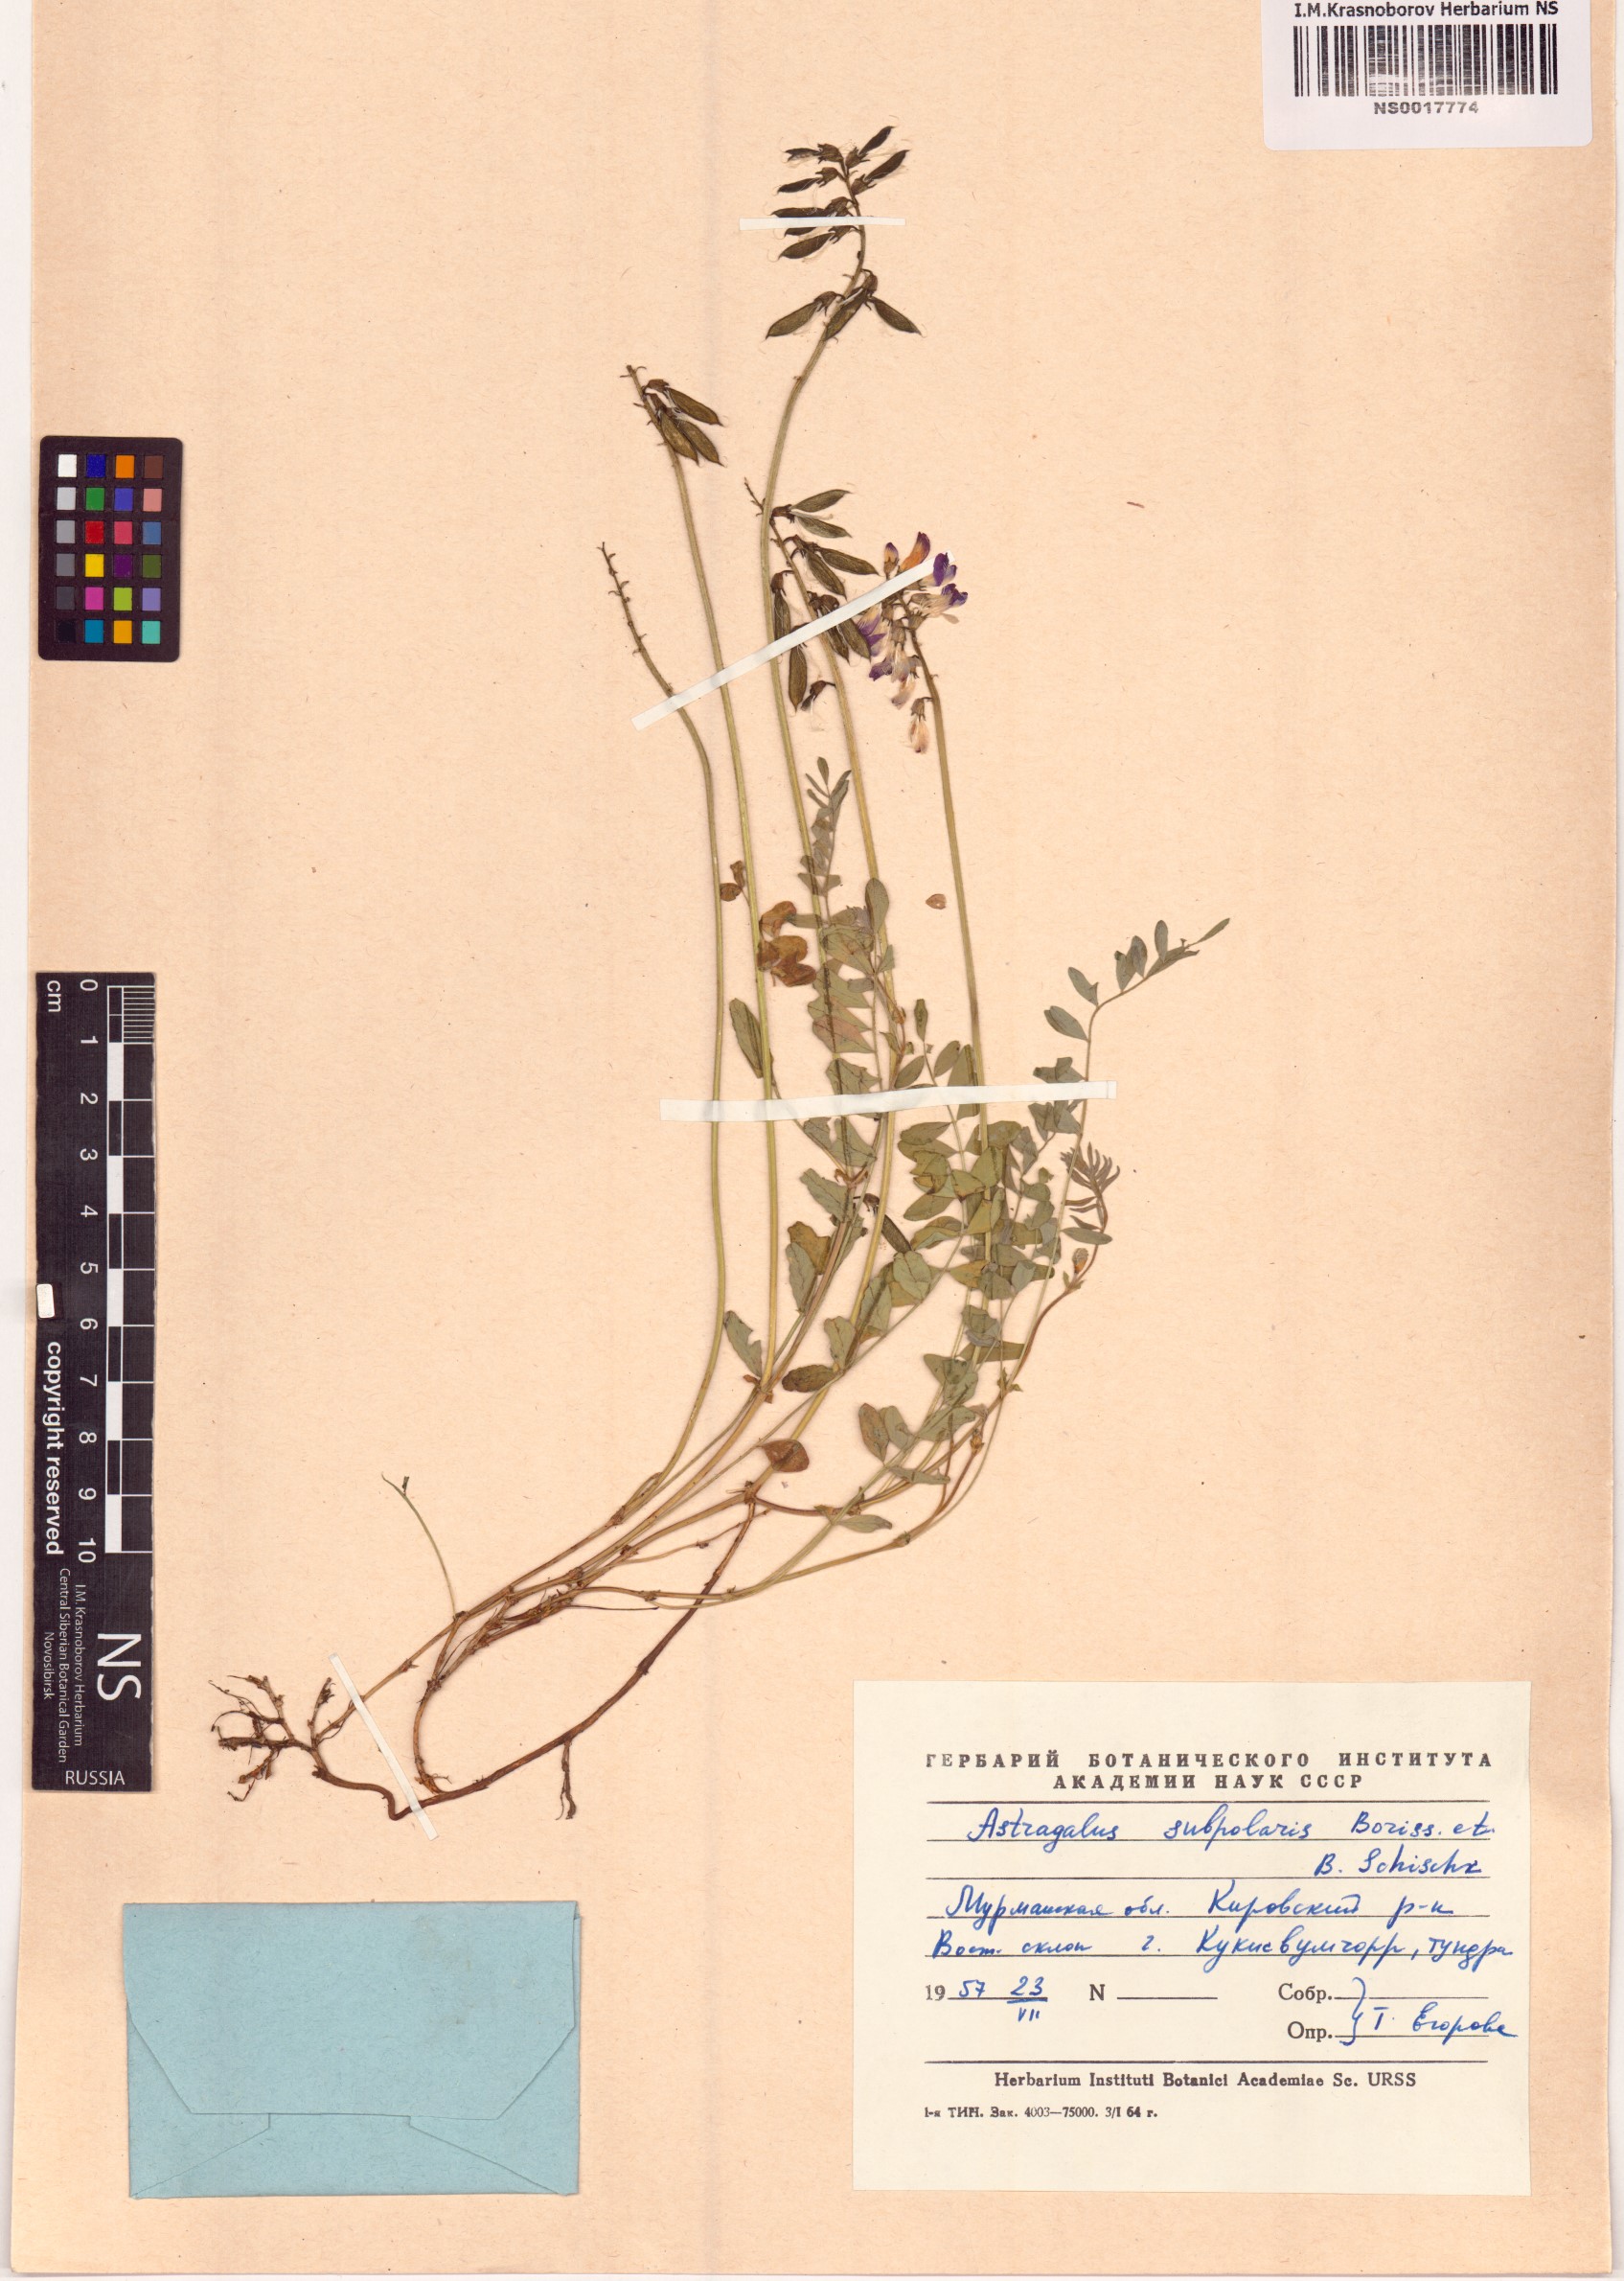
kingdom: Plantae
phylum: Tracheophyta
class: Magnoliopsida
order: Fabales
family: Fabaceae
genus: Astragalus
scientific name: Astragalus norvegicus
